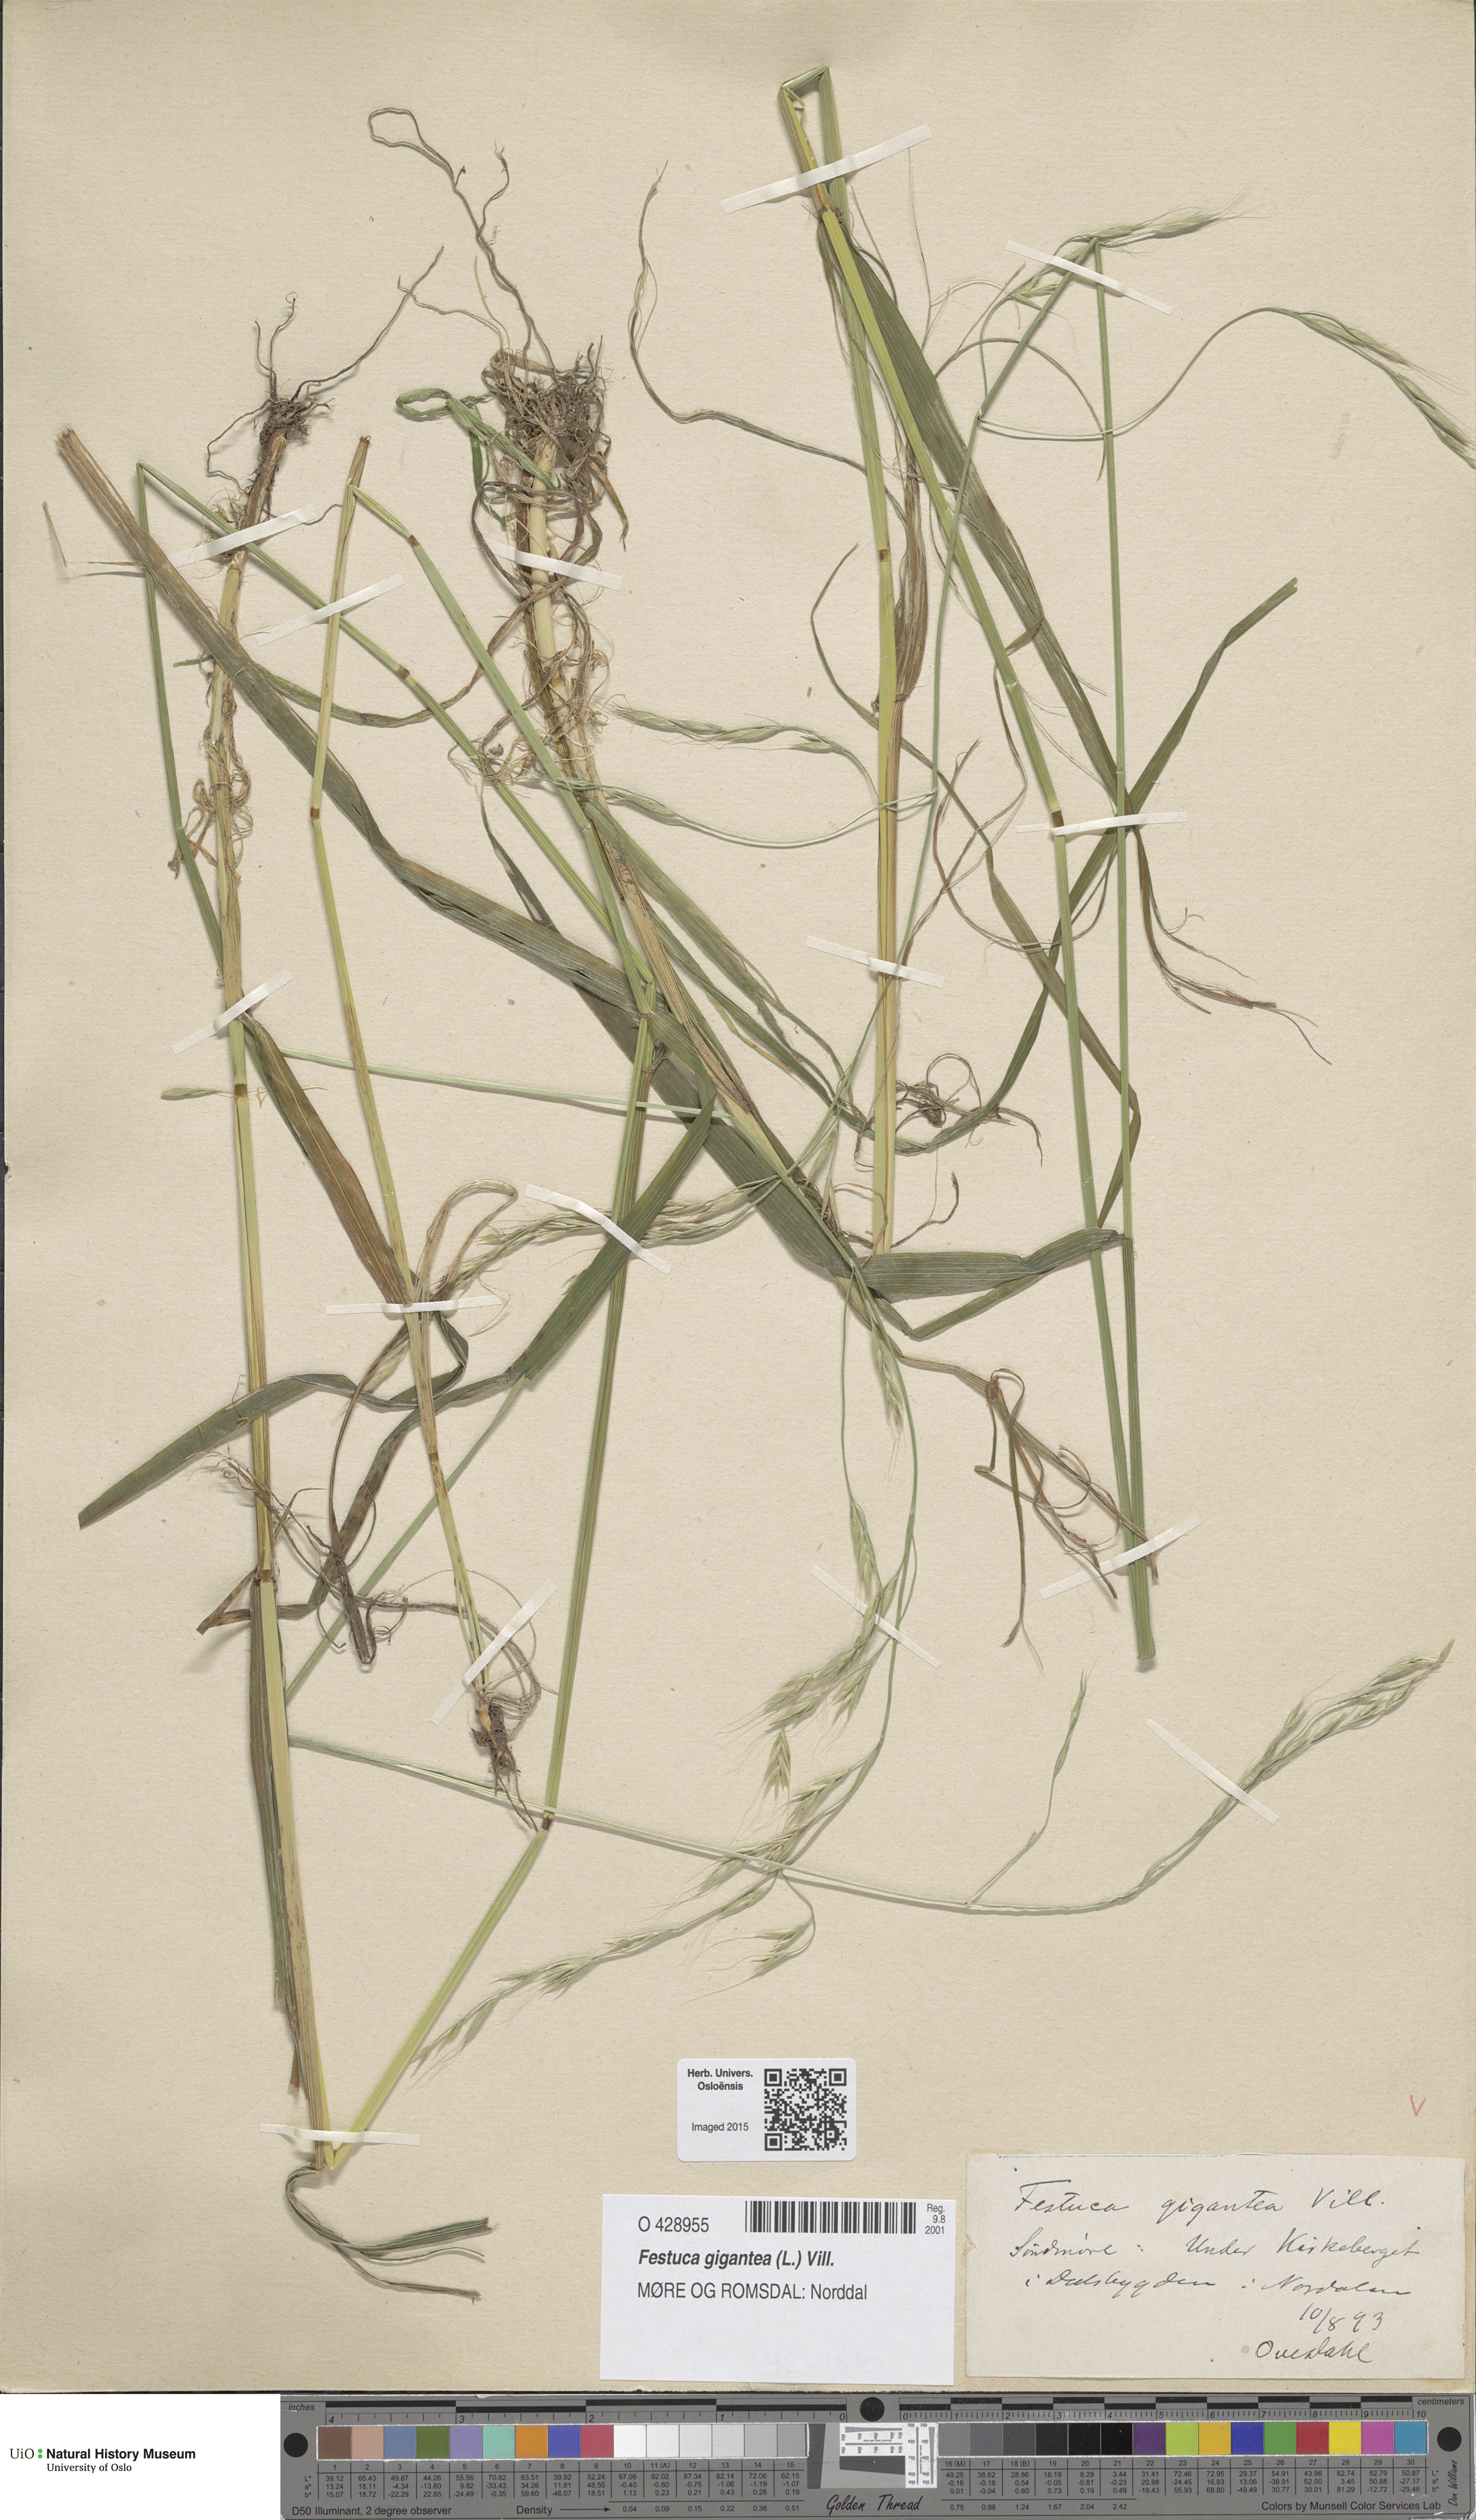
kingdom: Plantae
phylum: Tracheophyta
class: Liliopsida
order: Poales
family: Poaceae
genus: Lolium
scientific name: Lolium giganteum
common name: Giant fescue
